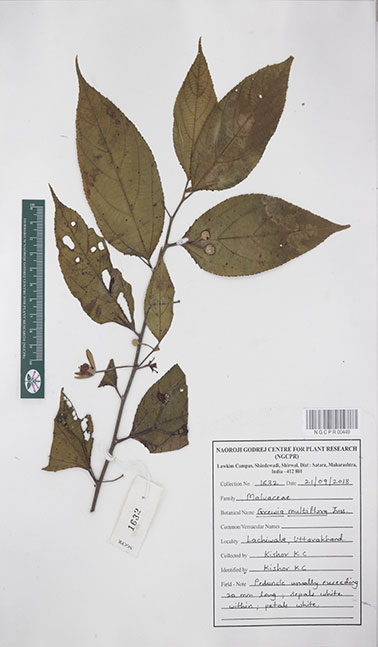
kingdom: Plantae
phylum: Tracheophyta
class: Magnoliopsida
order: Malvales
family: Malvaceae
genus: Grewia
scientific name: Grewia multiflora
